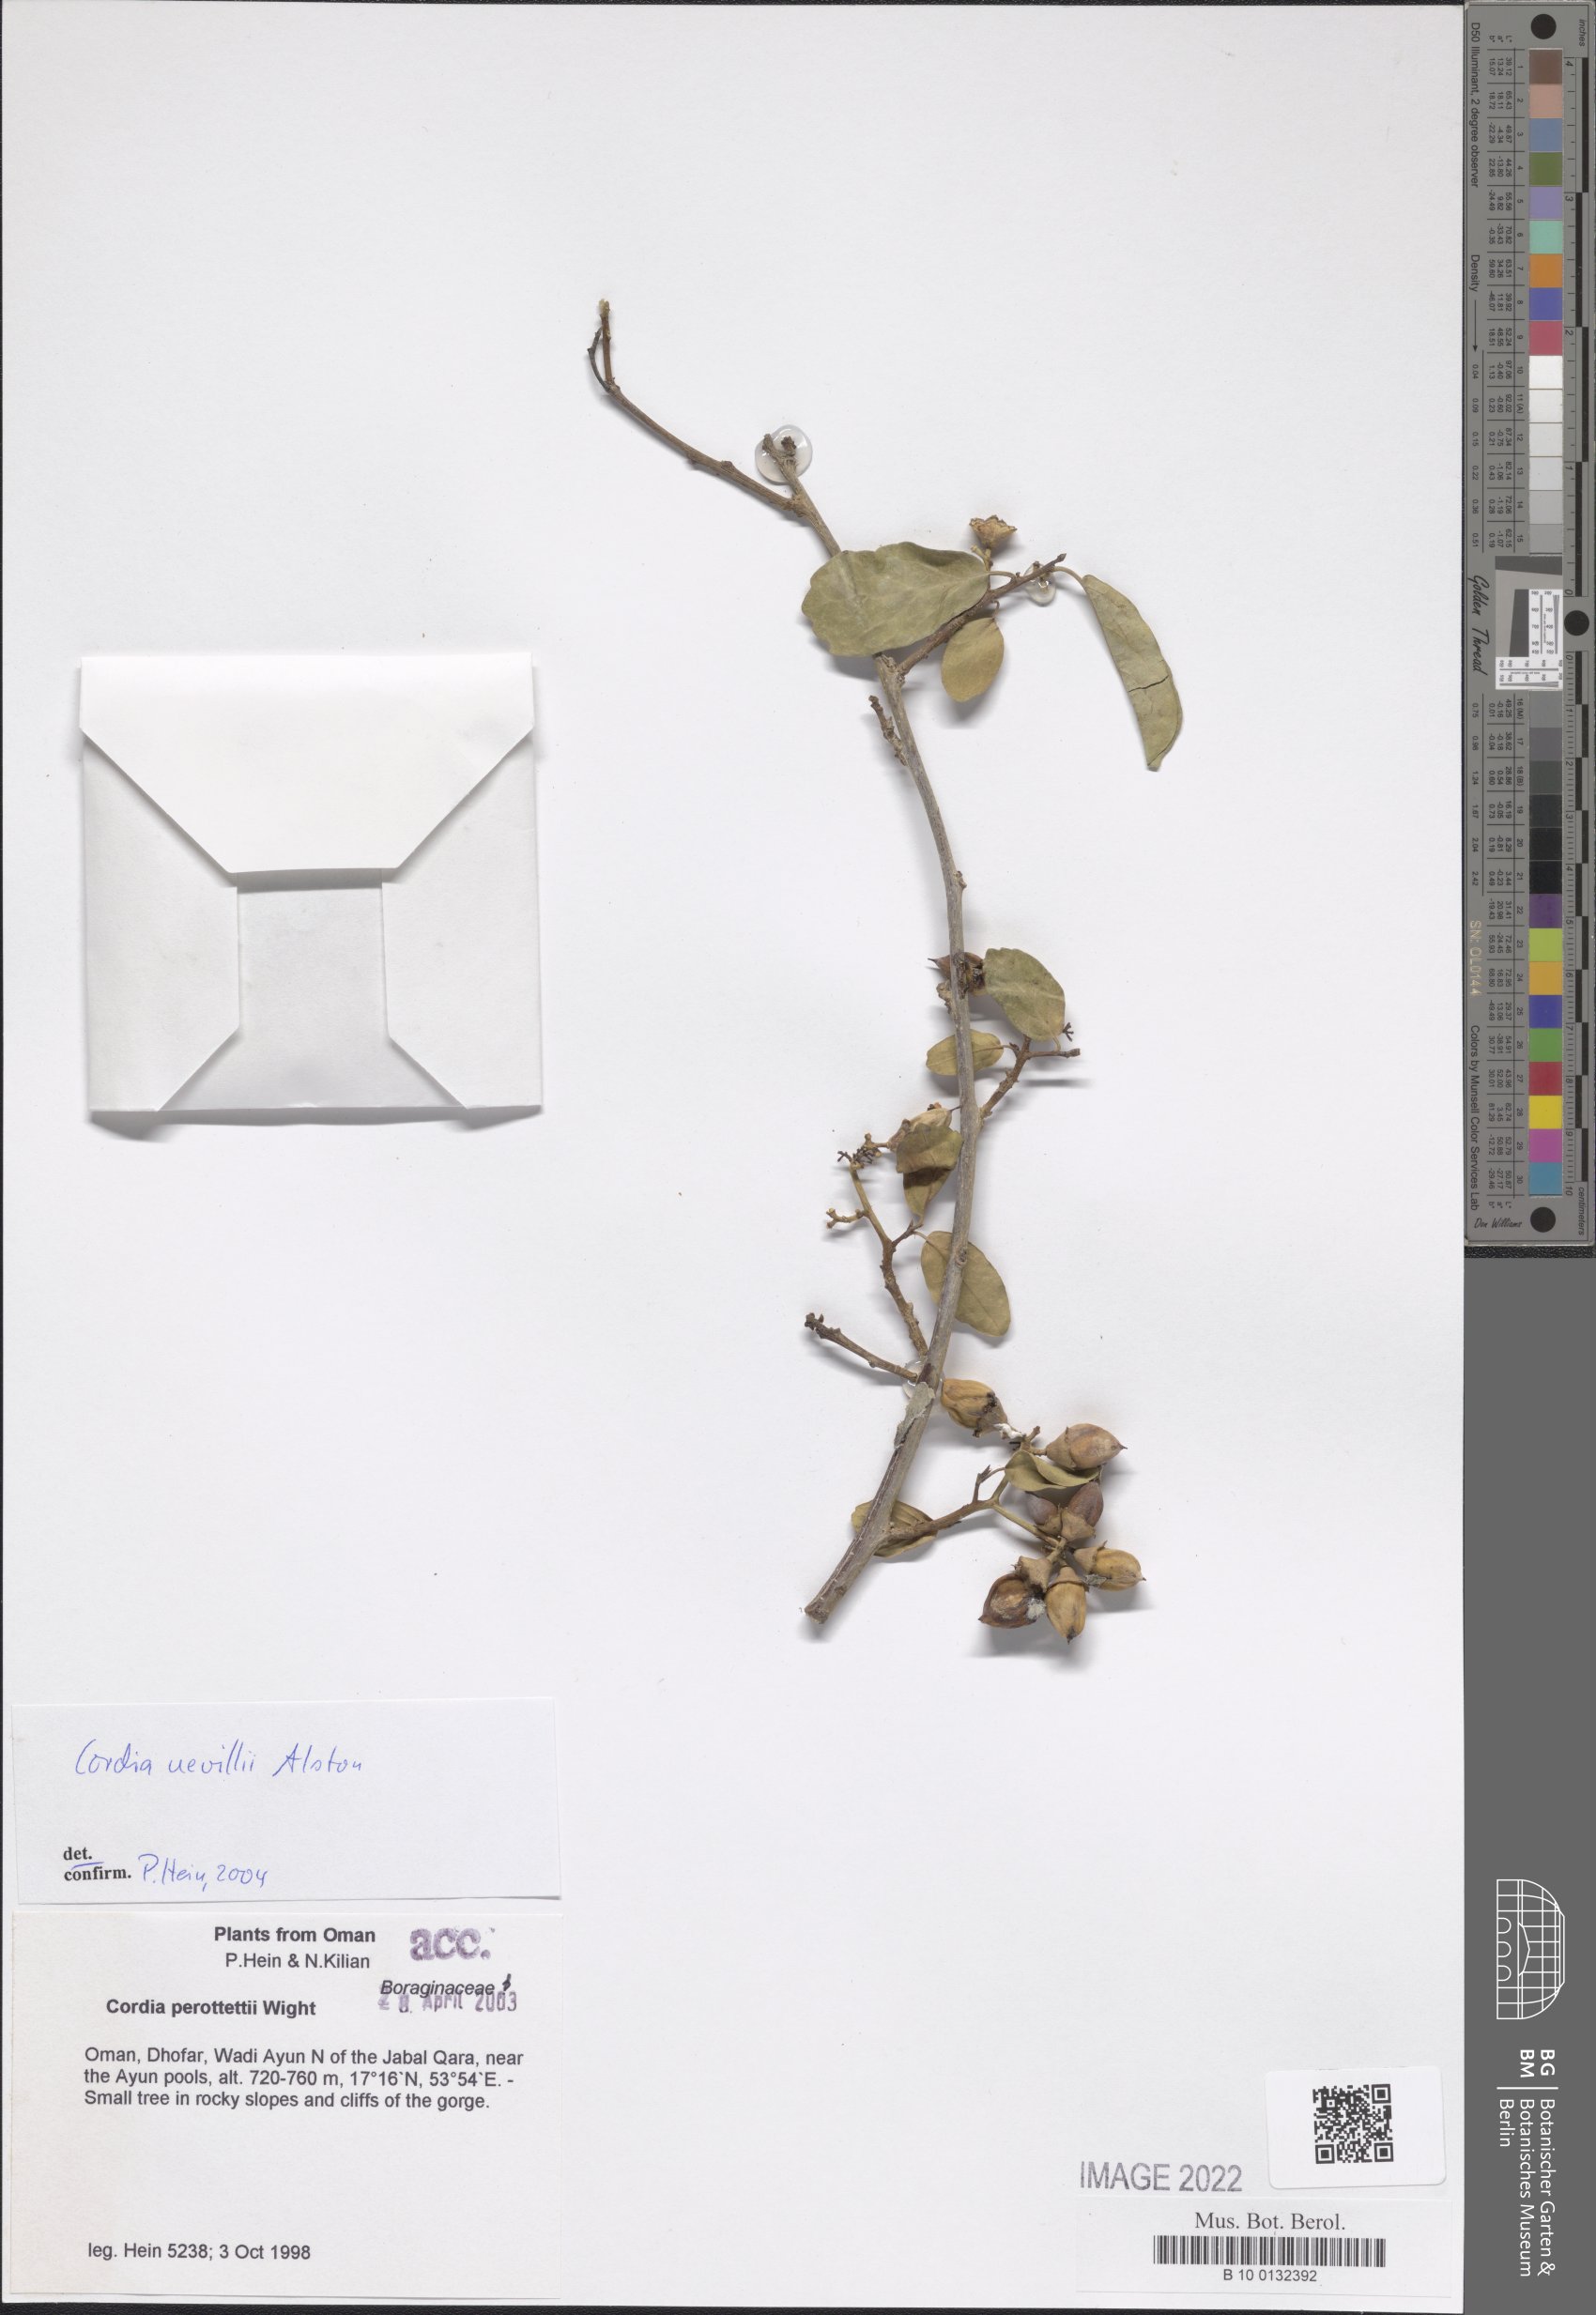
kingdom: Plantae
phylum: Tracheophyta
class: Magnoliopsida
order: Boraginales
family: Cordiaceae
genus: Cordia
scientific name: Cordia quercifolia
